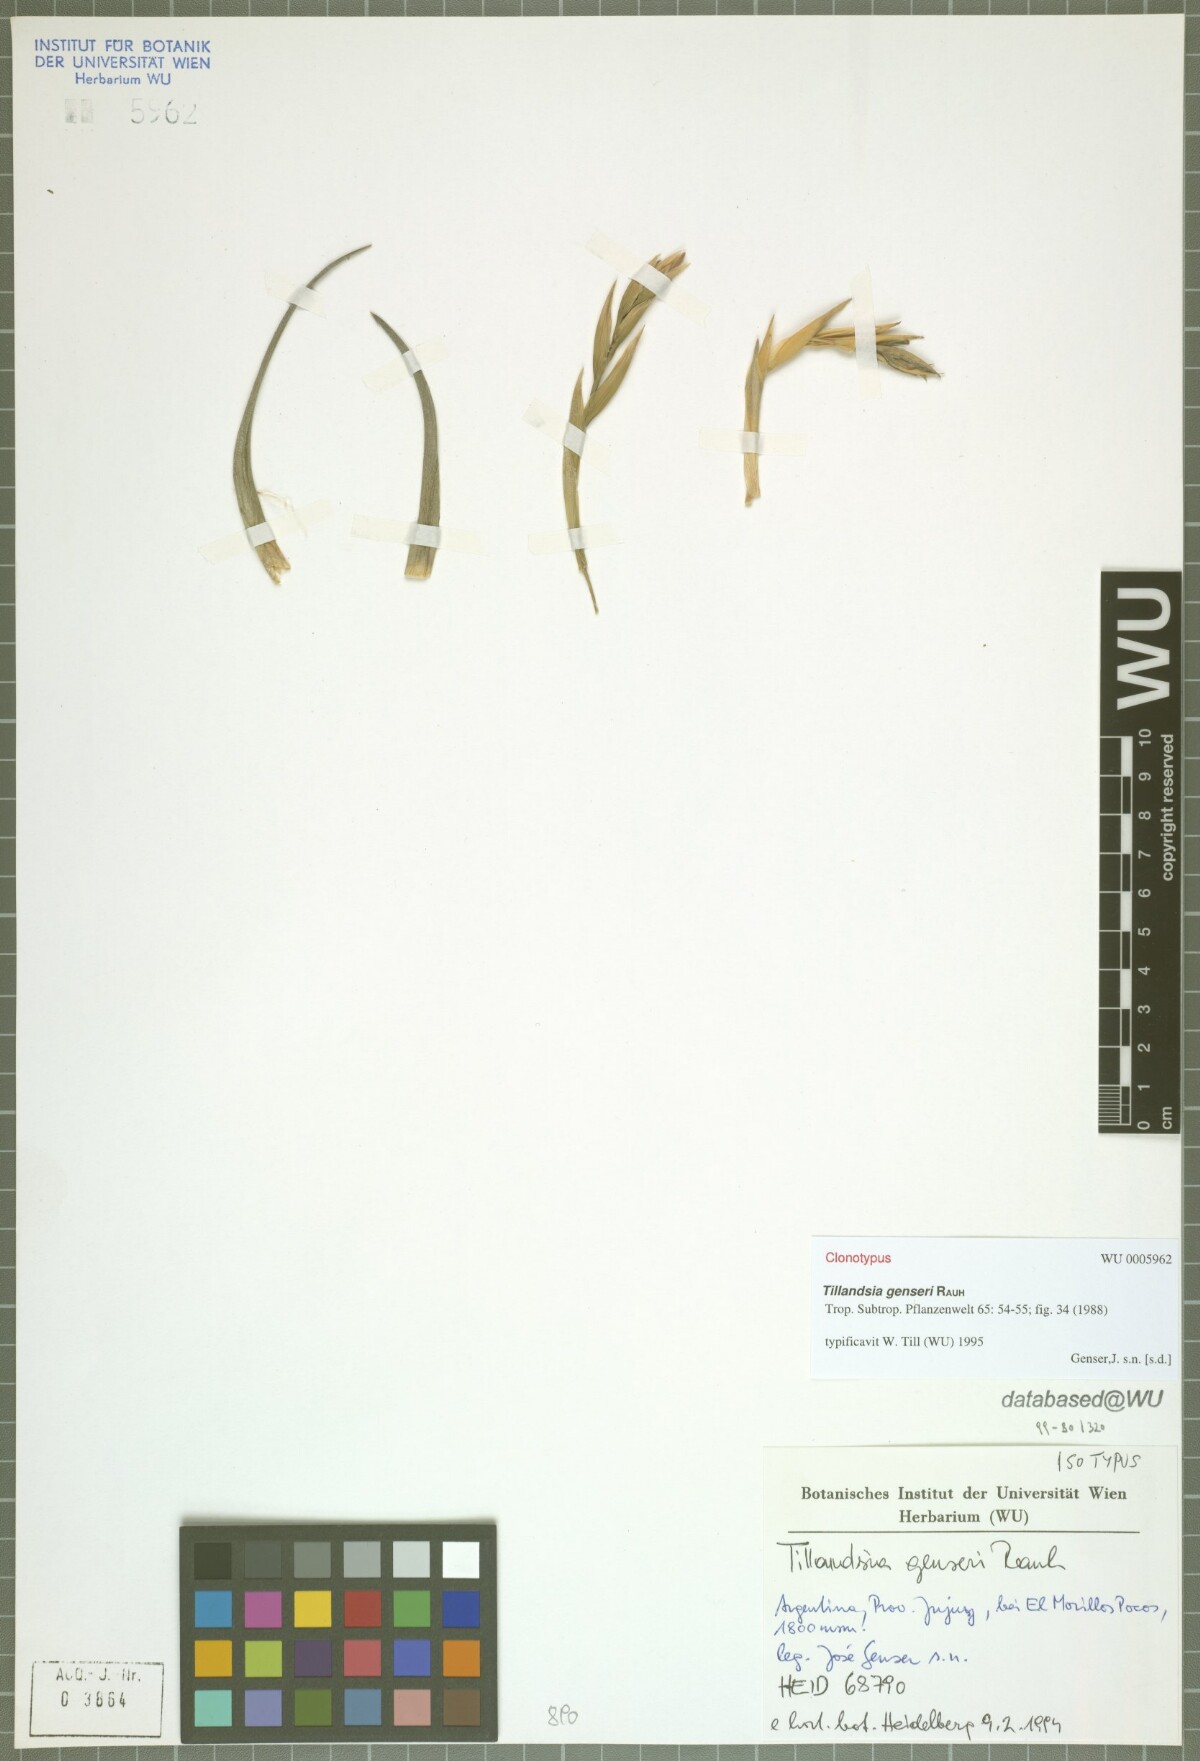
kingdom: Plantae
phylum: Tracheophyta
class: Liliopsida
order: Poales
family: Bromeliaceae
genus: Tillandsia
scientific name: Tillandsia genseri
